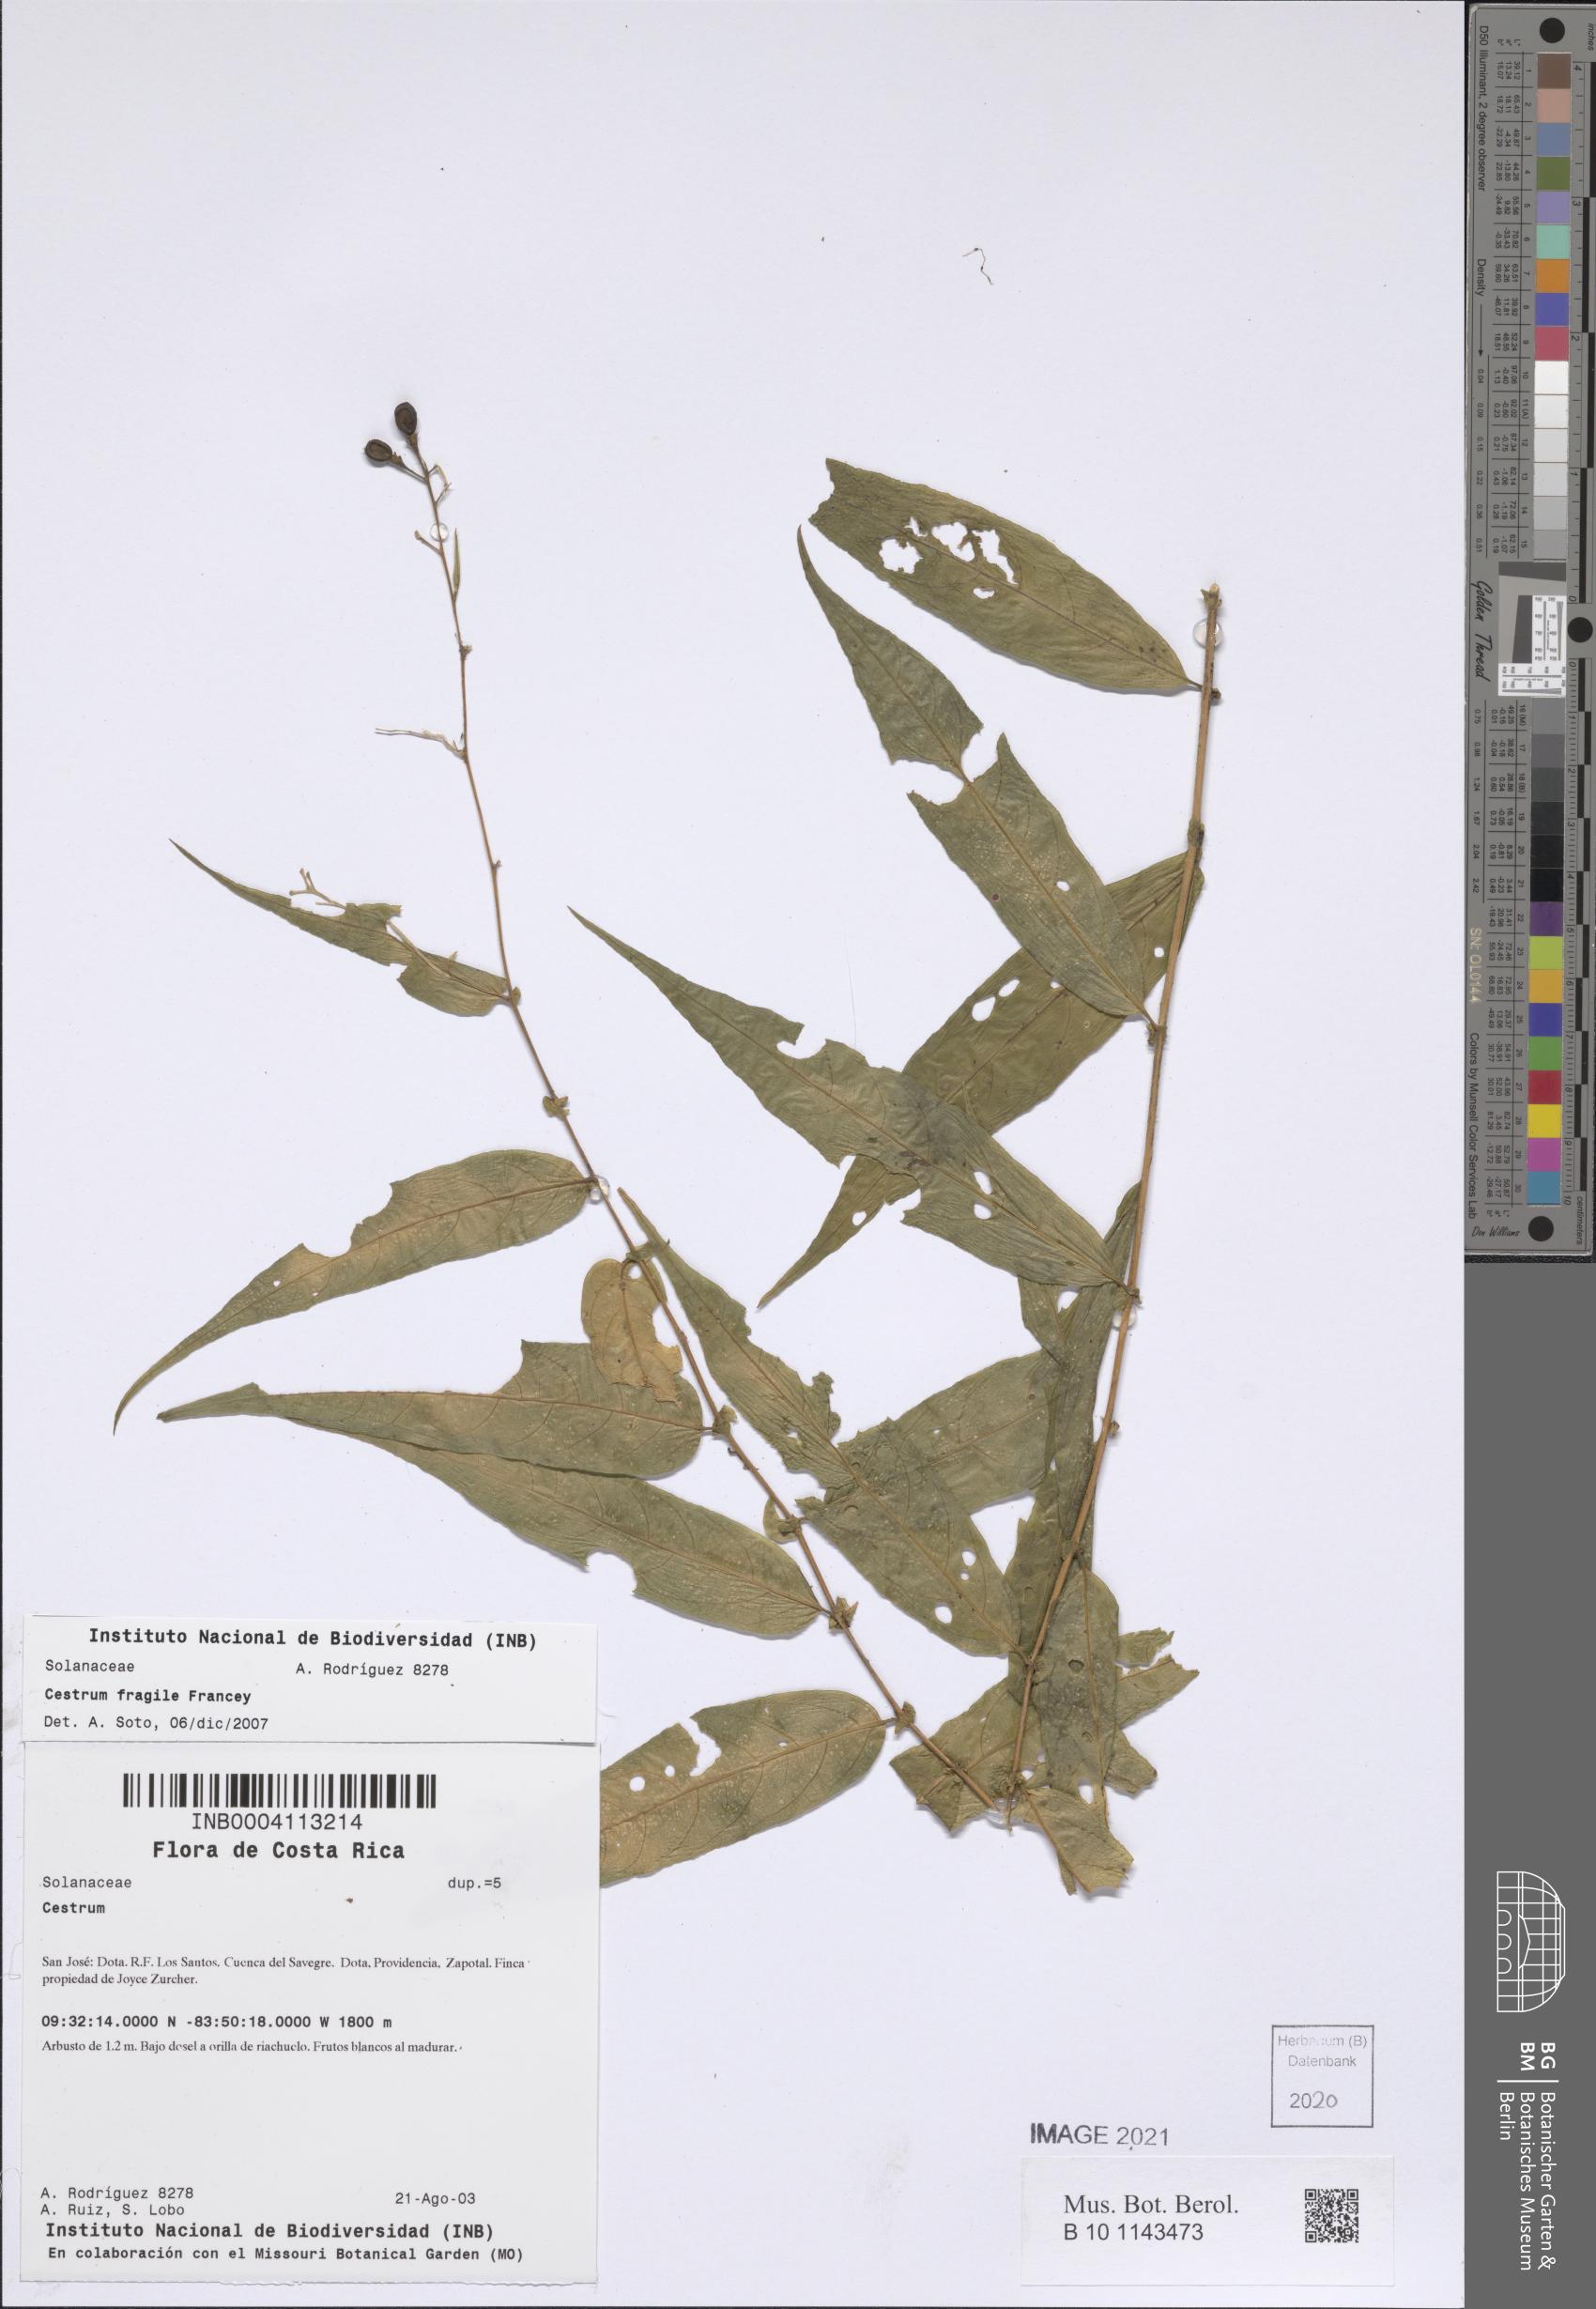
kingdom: Plantae
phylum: Tracheophyta
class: Magnoliopsida
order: Solanales
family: Solanaceae
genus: Cestrum
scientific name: Cestrum fragile
